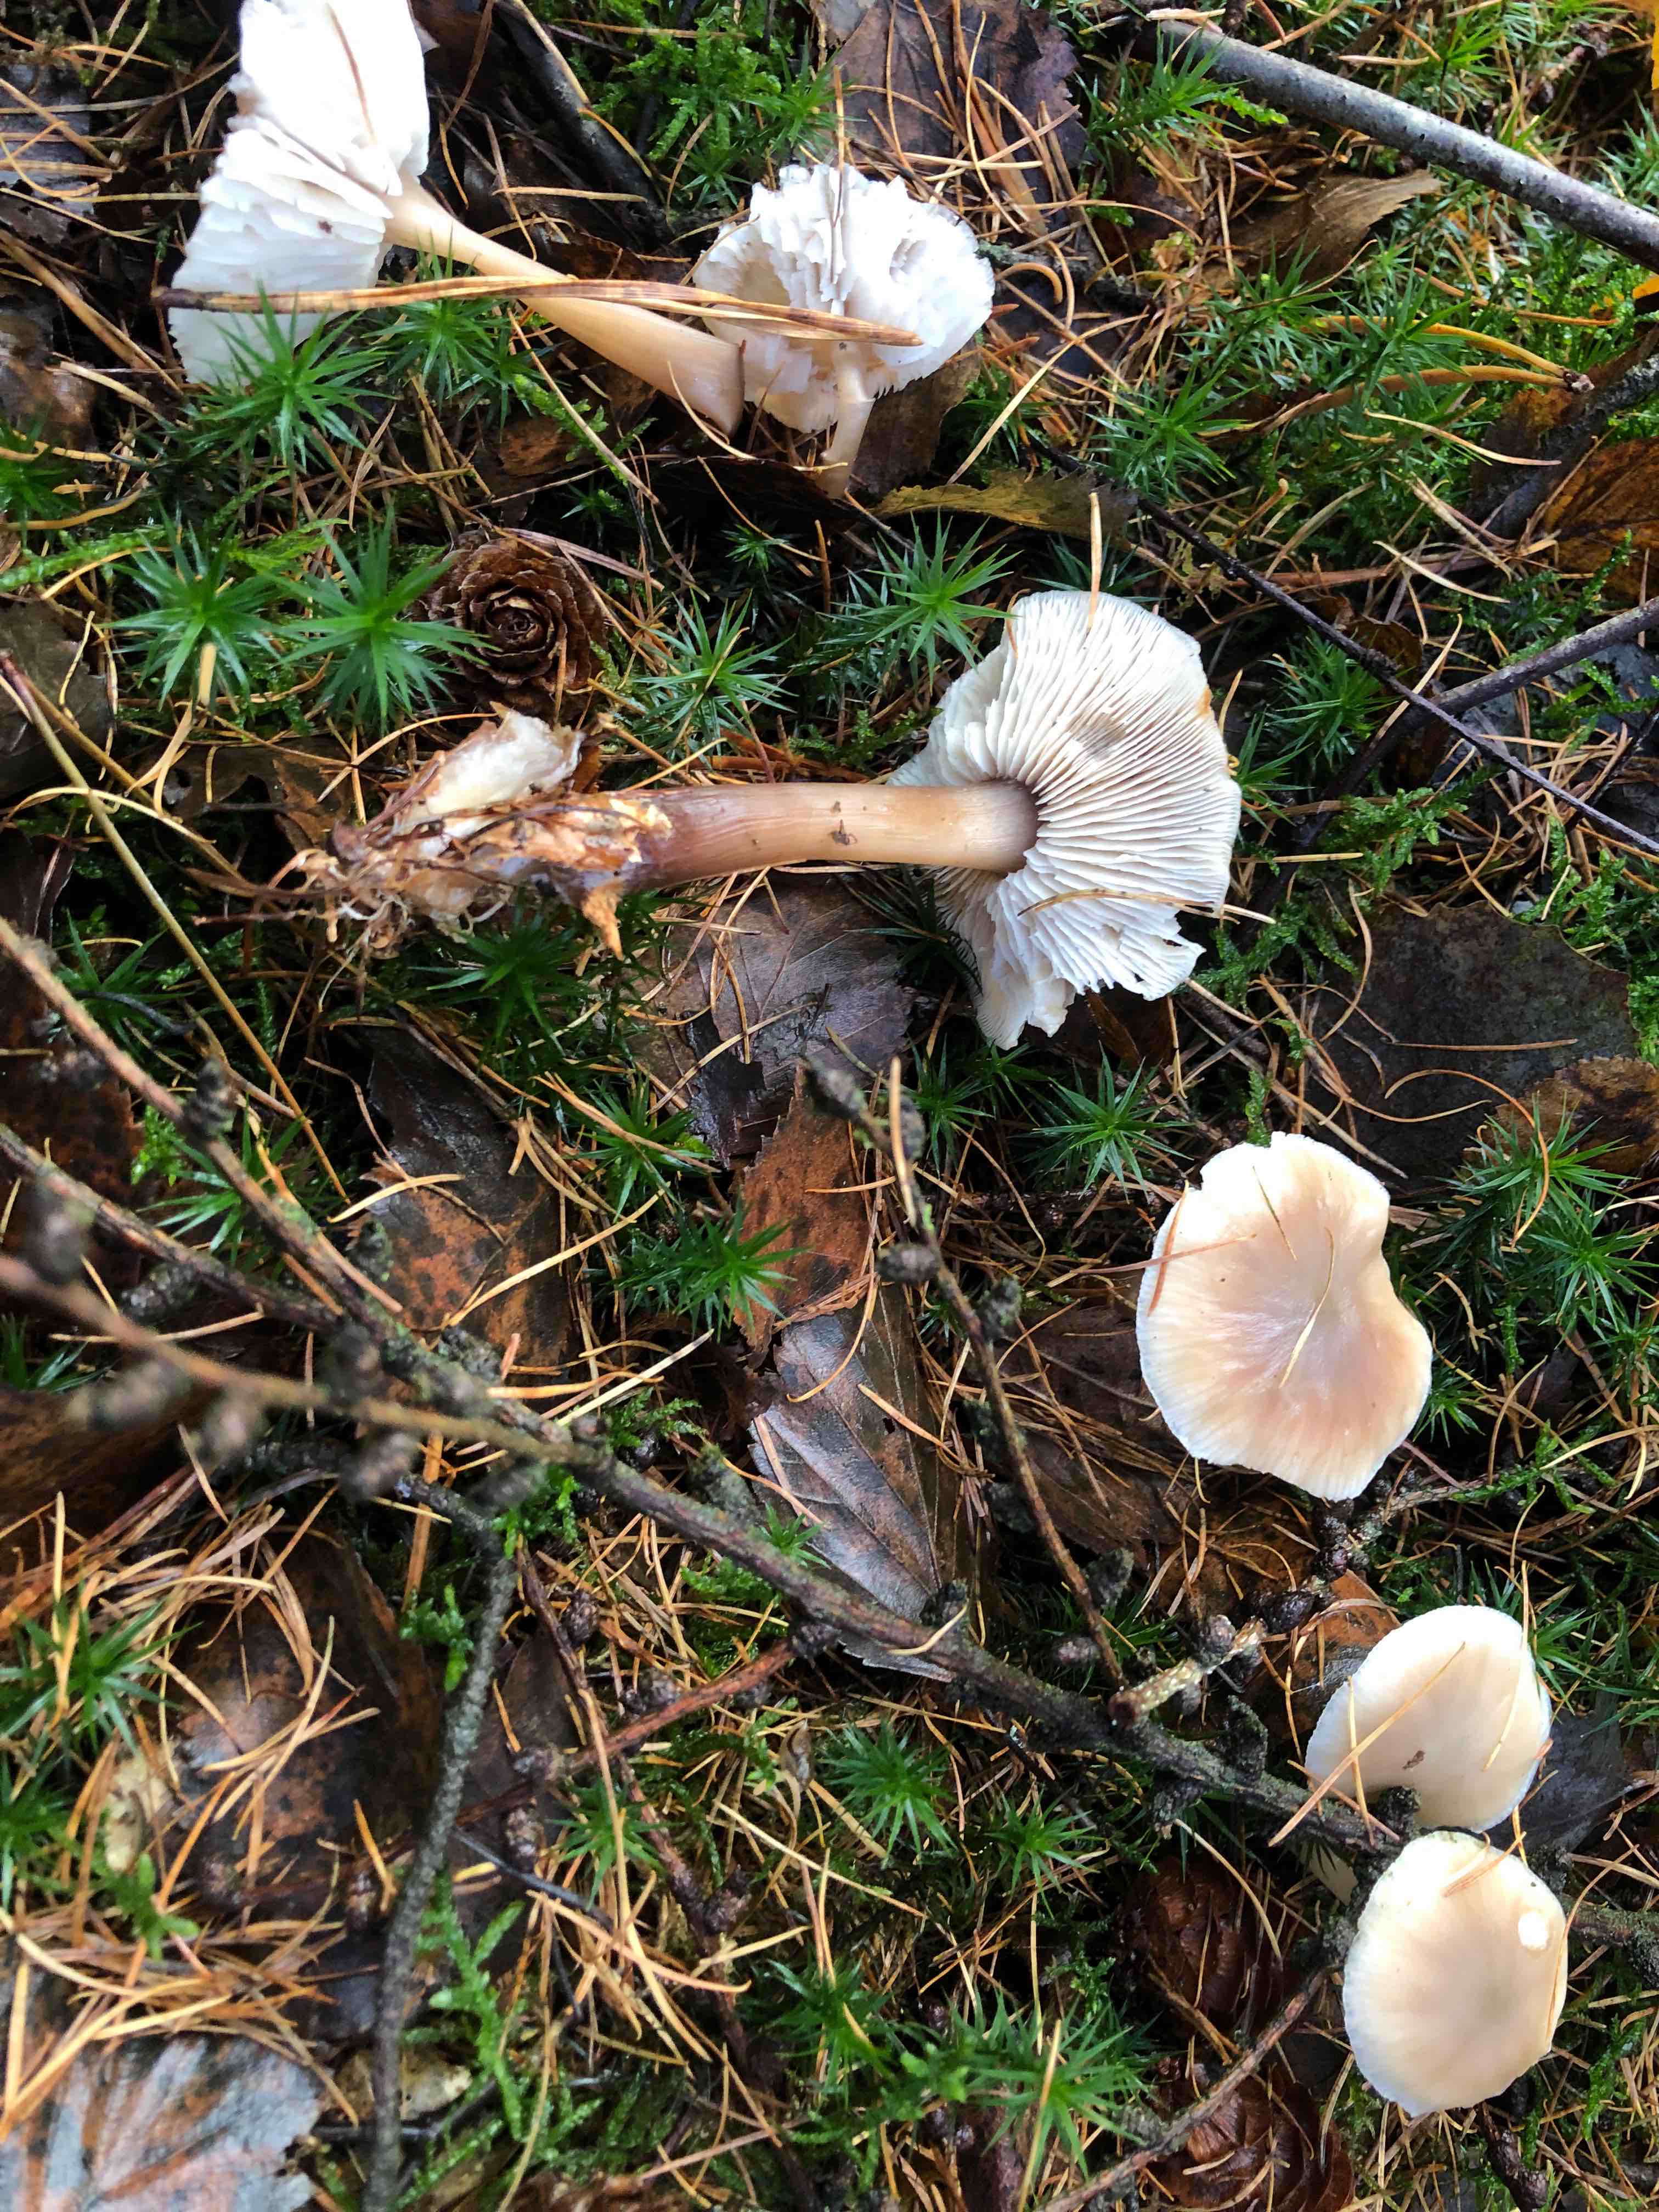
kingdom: Fungi
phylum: Basidiomycota
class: Agaricomycetes
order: Agaricales
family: Omphalotaceae
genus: Rhodocollybia
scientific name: Rhodocollybia asema
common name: horngrå fladhat
